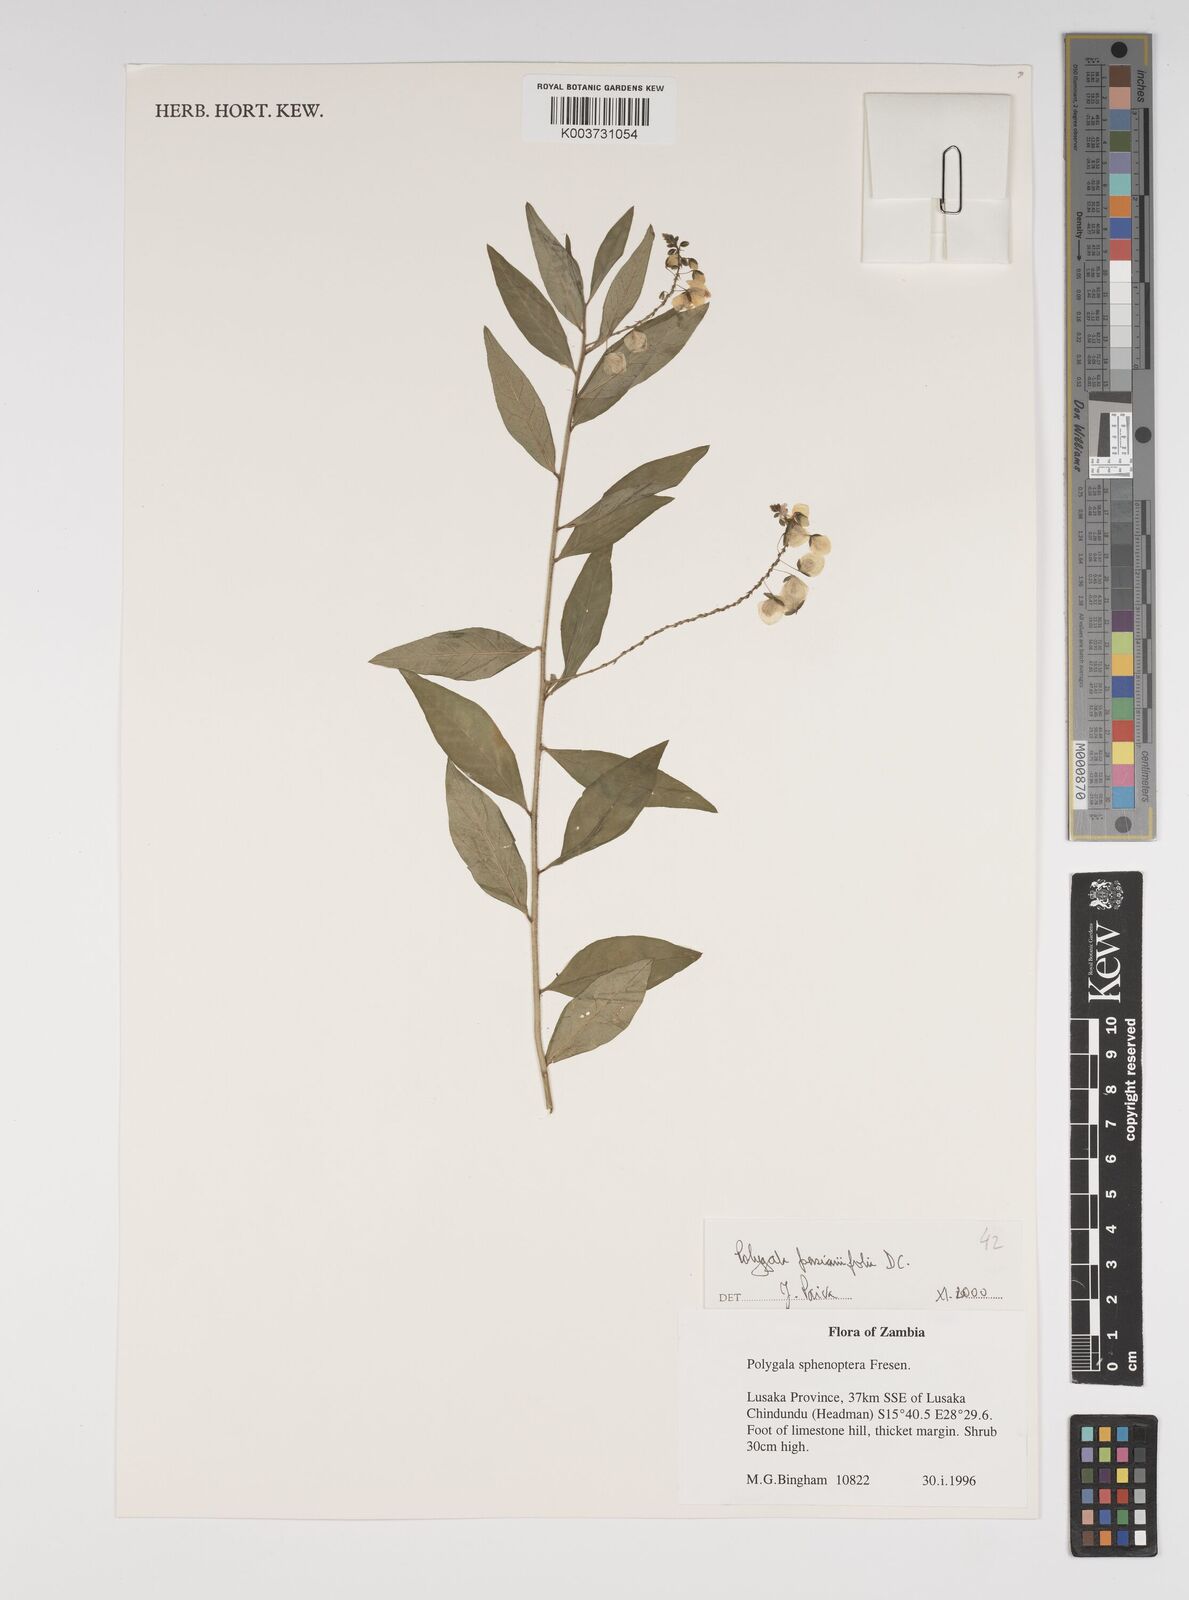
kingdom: Plantae
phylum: Tracheophyta
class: Magnoliopsida
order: Fabales
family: Polygalaceae
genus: Polygala
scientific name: Polygala persicariifolia
